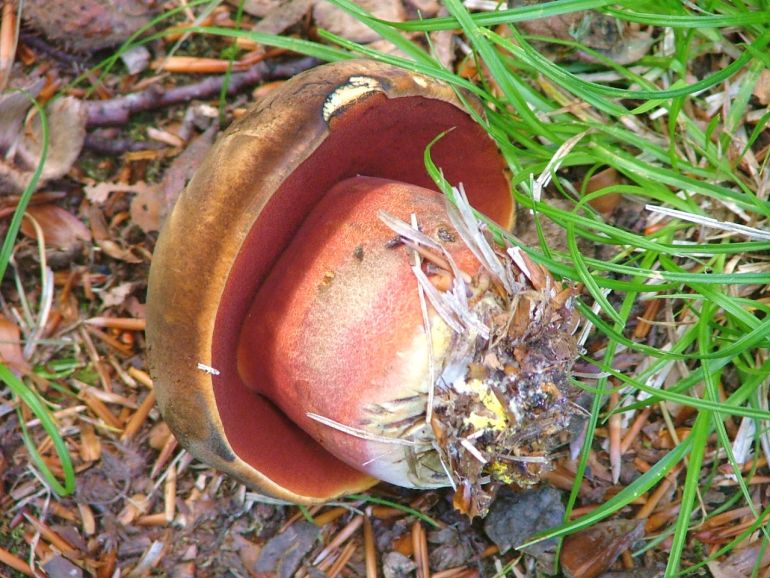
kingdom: Fungi
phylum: Basidiomycota
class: Agaricomycetes
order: Boletales
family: Boletaceae
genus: Neoboletus
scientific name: Neoboletus erythropus
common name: punktstokket indigorørhat
